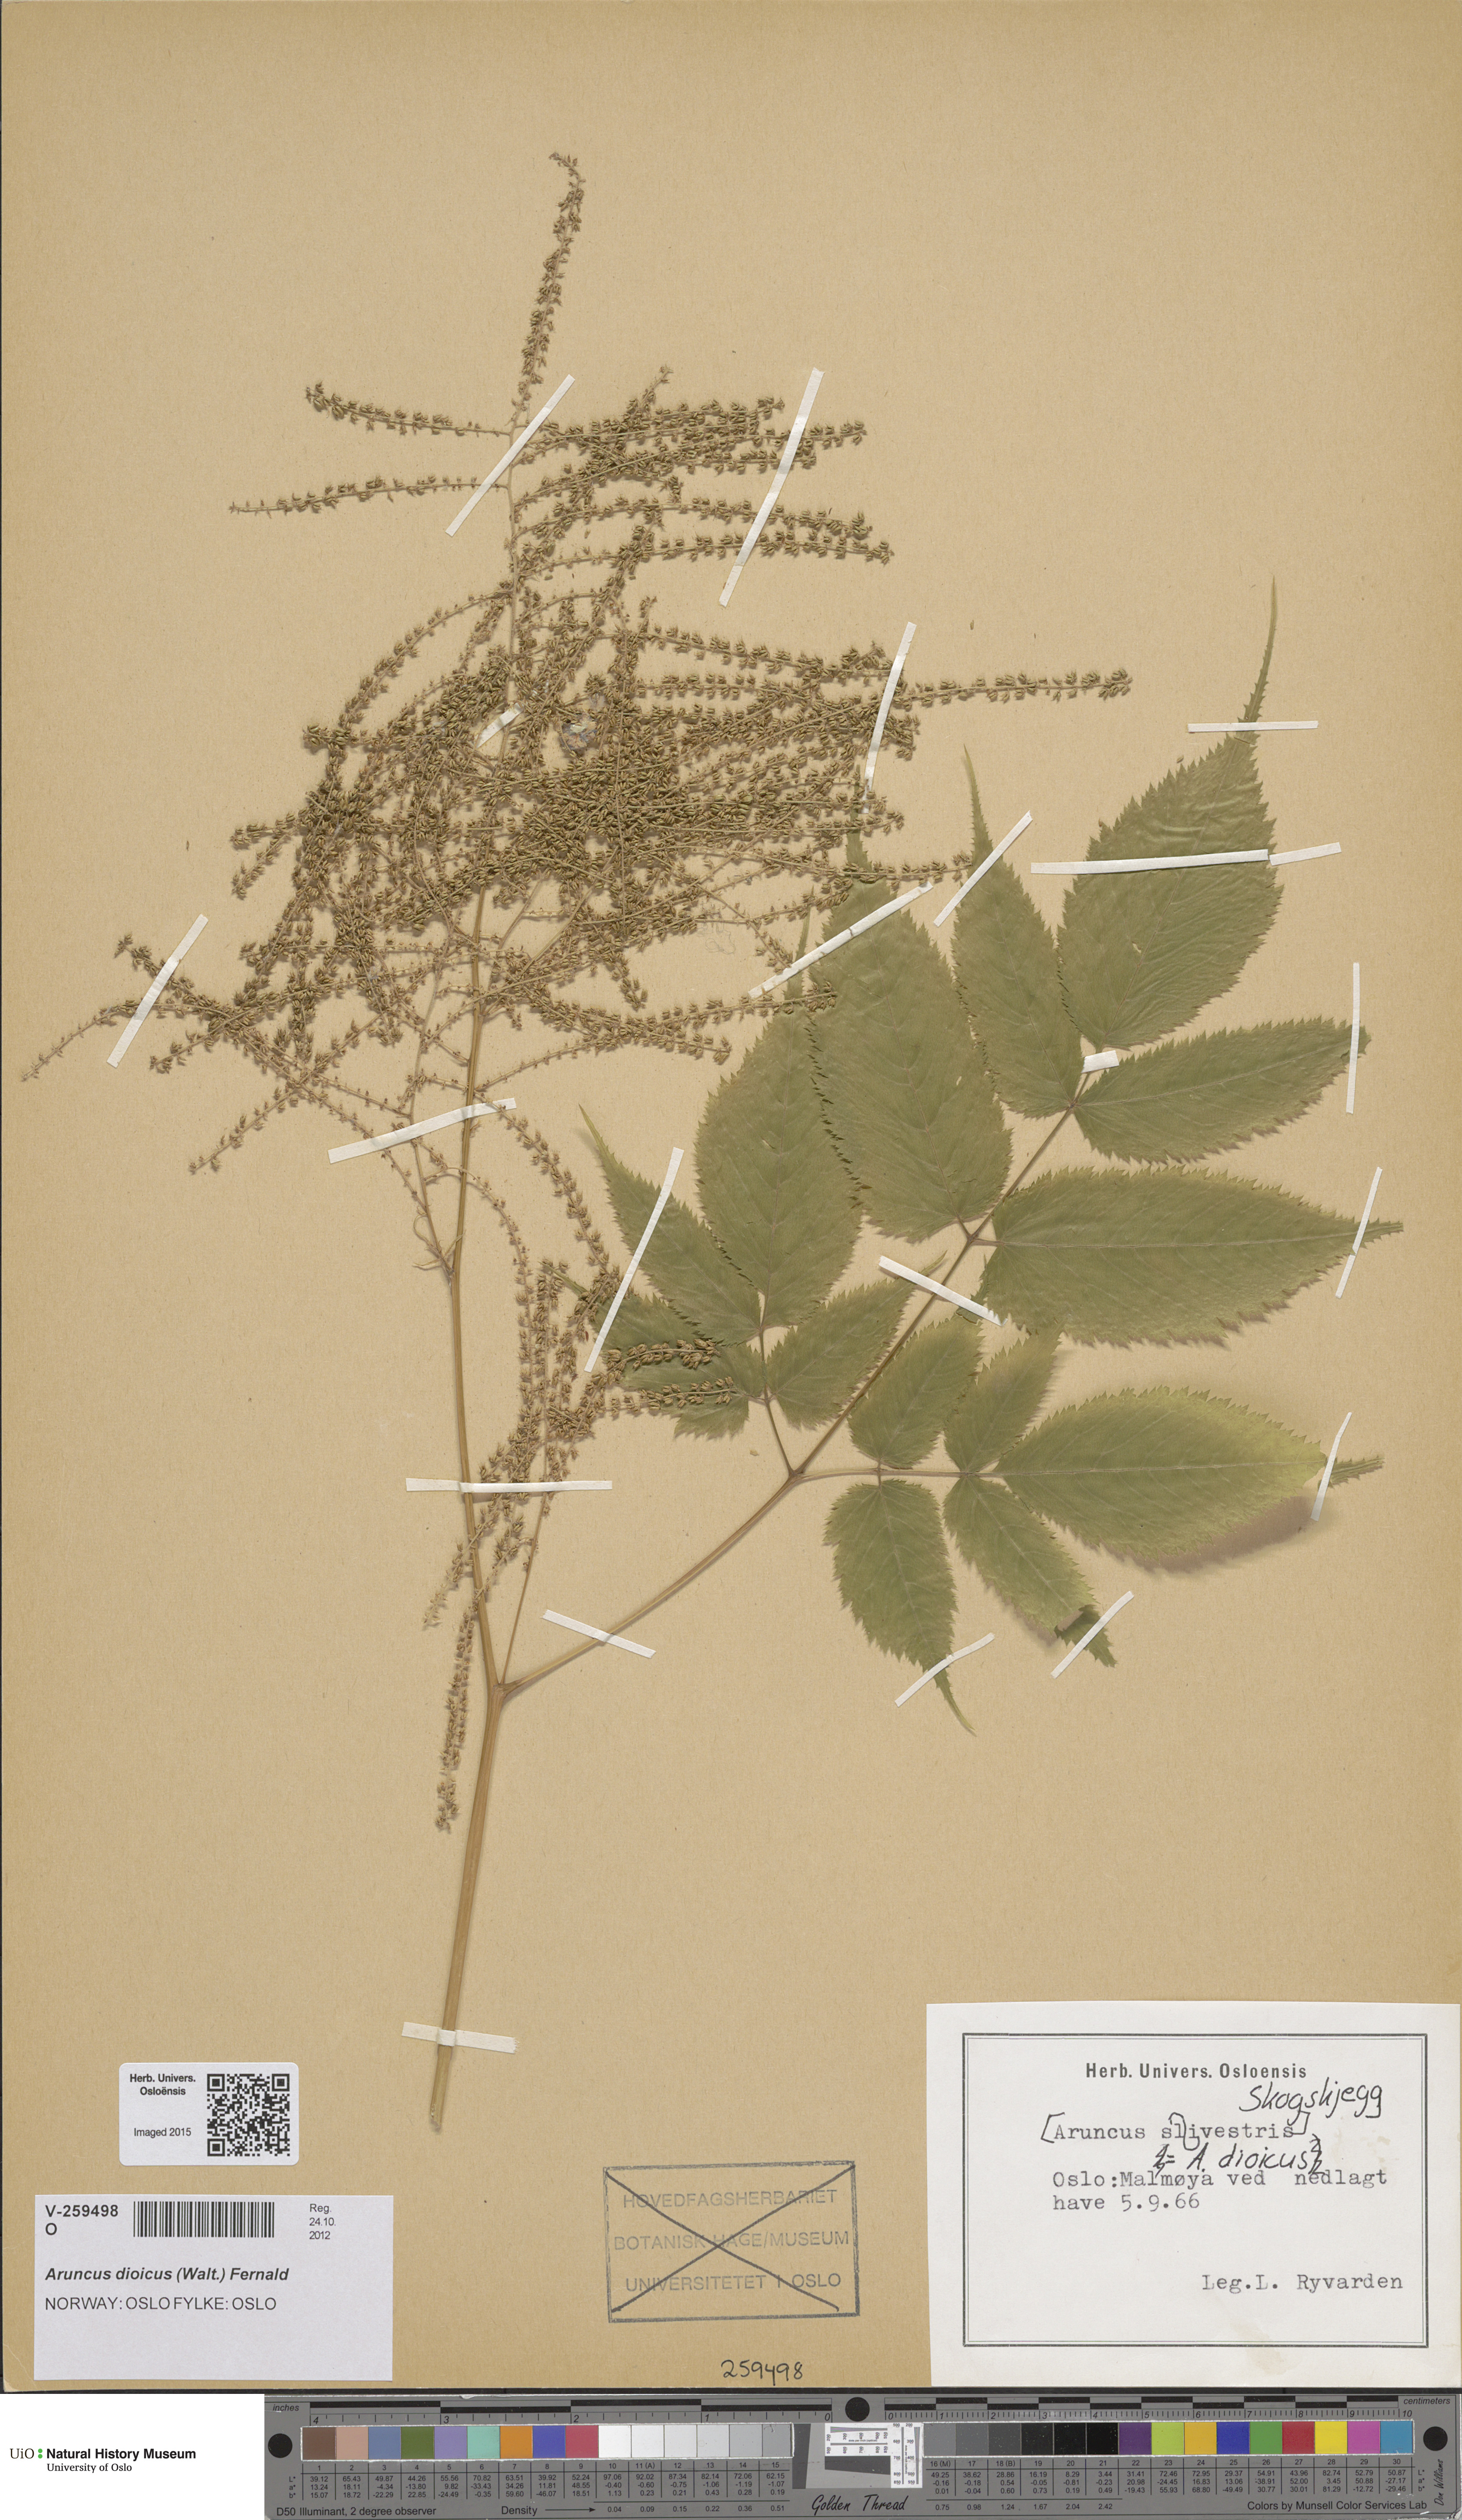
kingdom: Plantae
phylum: Tracheophyta
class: Magnoliopsida
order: Rosales
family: Rosaceae
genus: Aruncus
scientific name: Aruncus dioicus
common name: Buck's-beard
